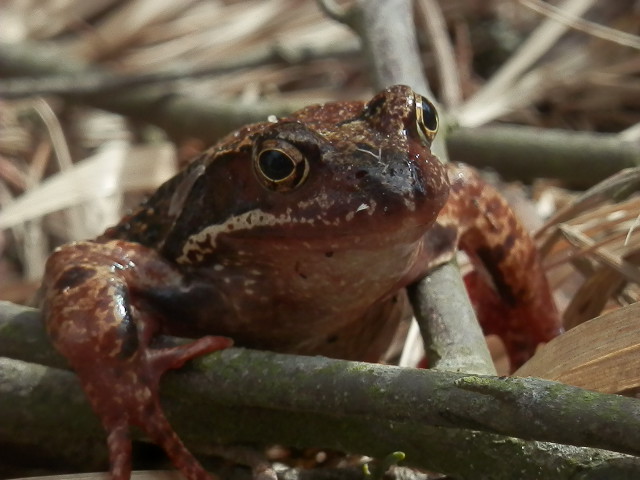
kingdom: Animalia
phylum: Chordata
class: Amphibia
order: Anura
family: Ranidae
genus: Rana
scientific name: Rana temporaria
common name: Common frog
